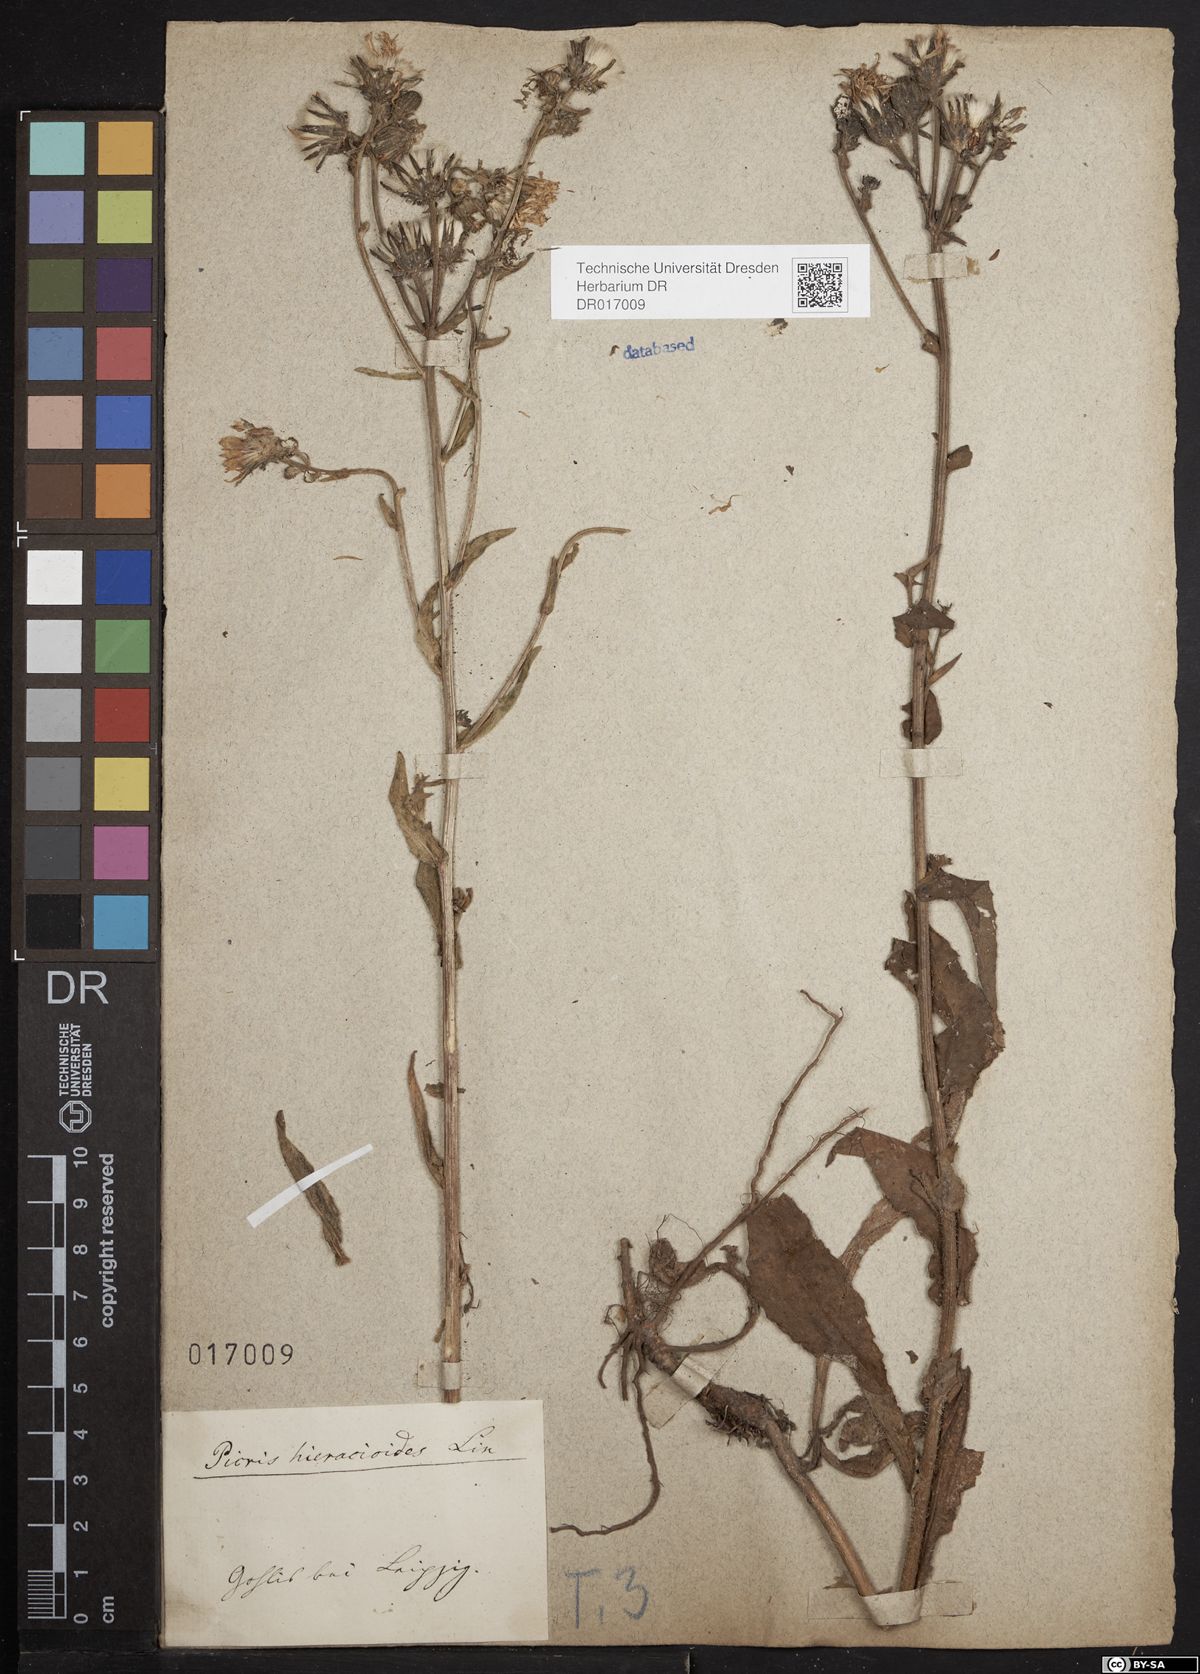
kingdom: Plantae
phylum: Tracheophyta
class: Magnoliopsida
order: Asterales
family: Asteraceae
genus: Picris
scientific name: Picris hieracioides
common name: Hawkweed oxtongue
